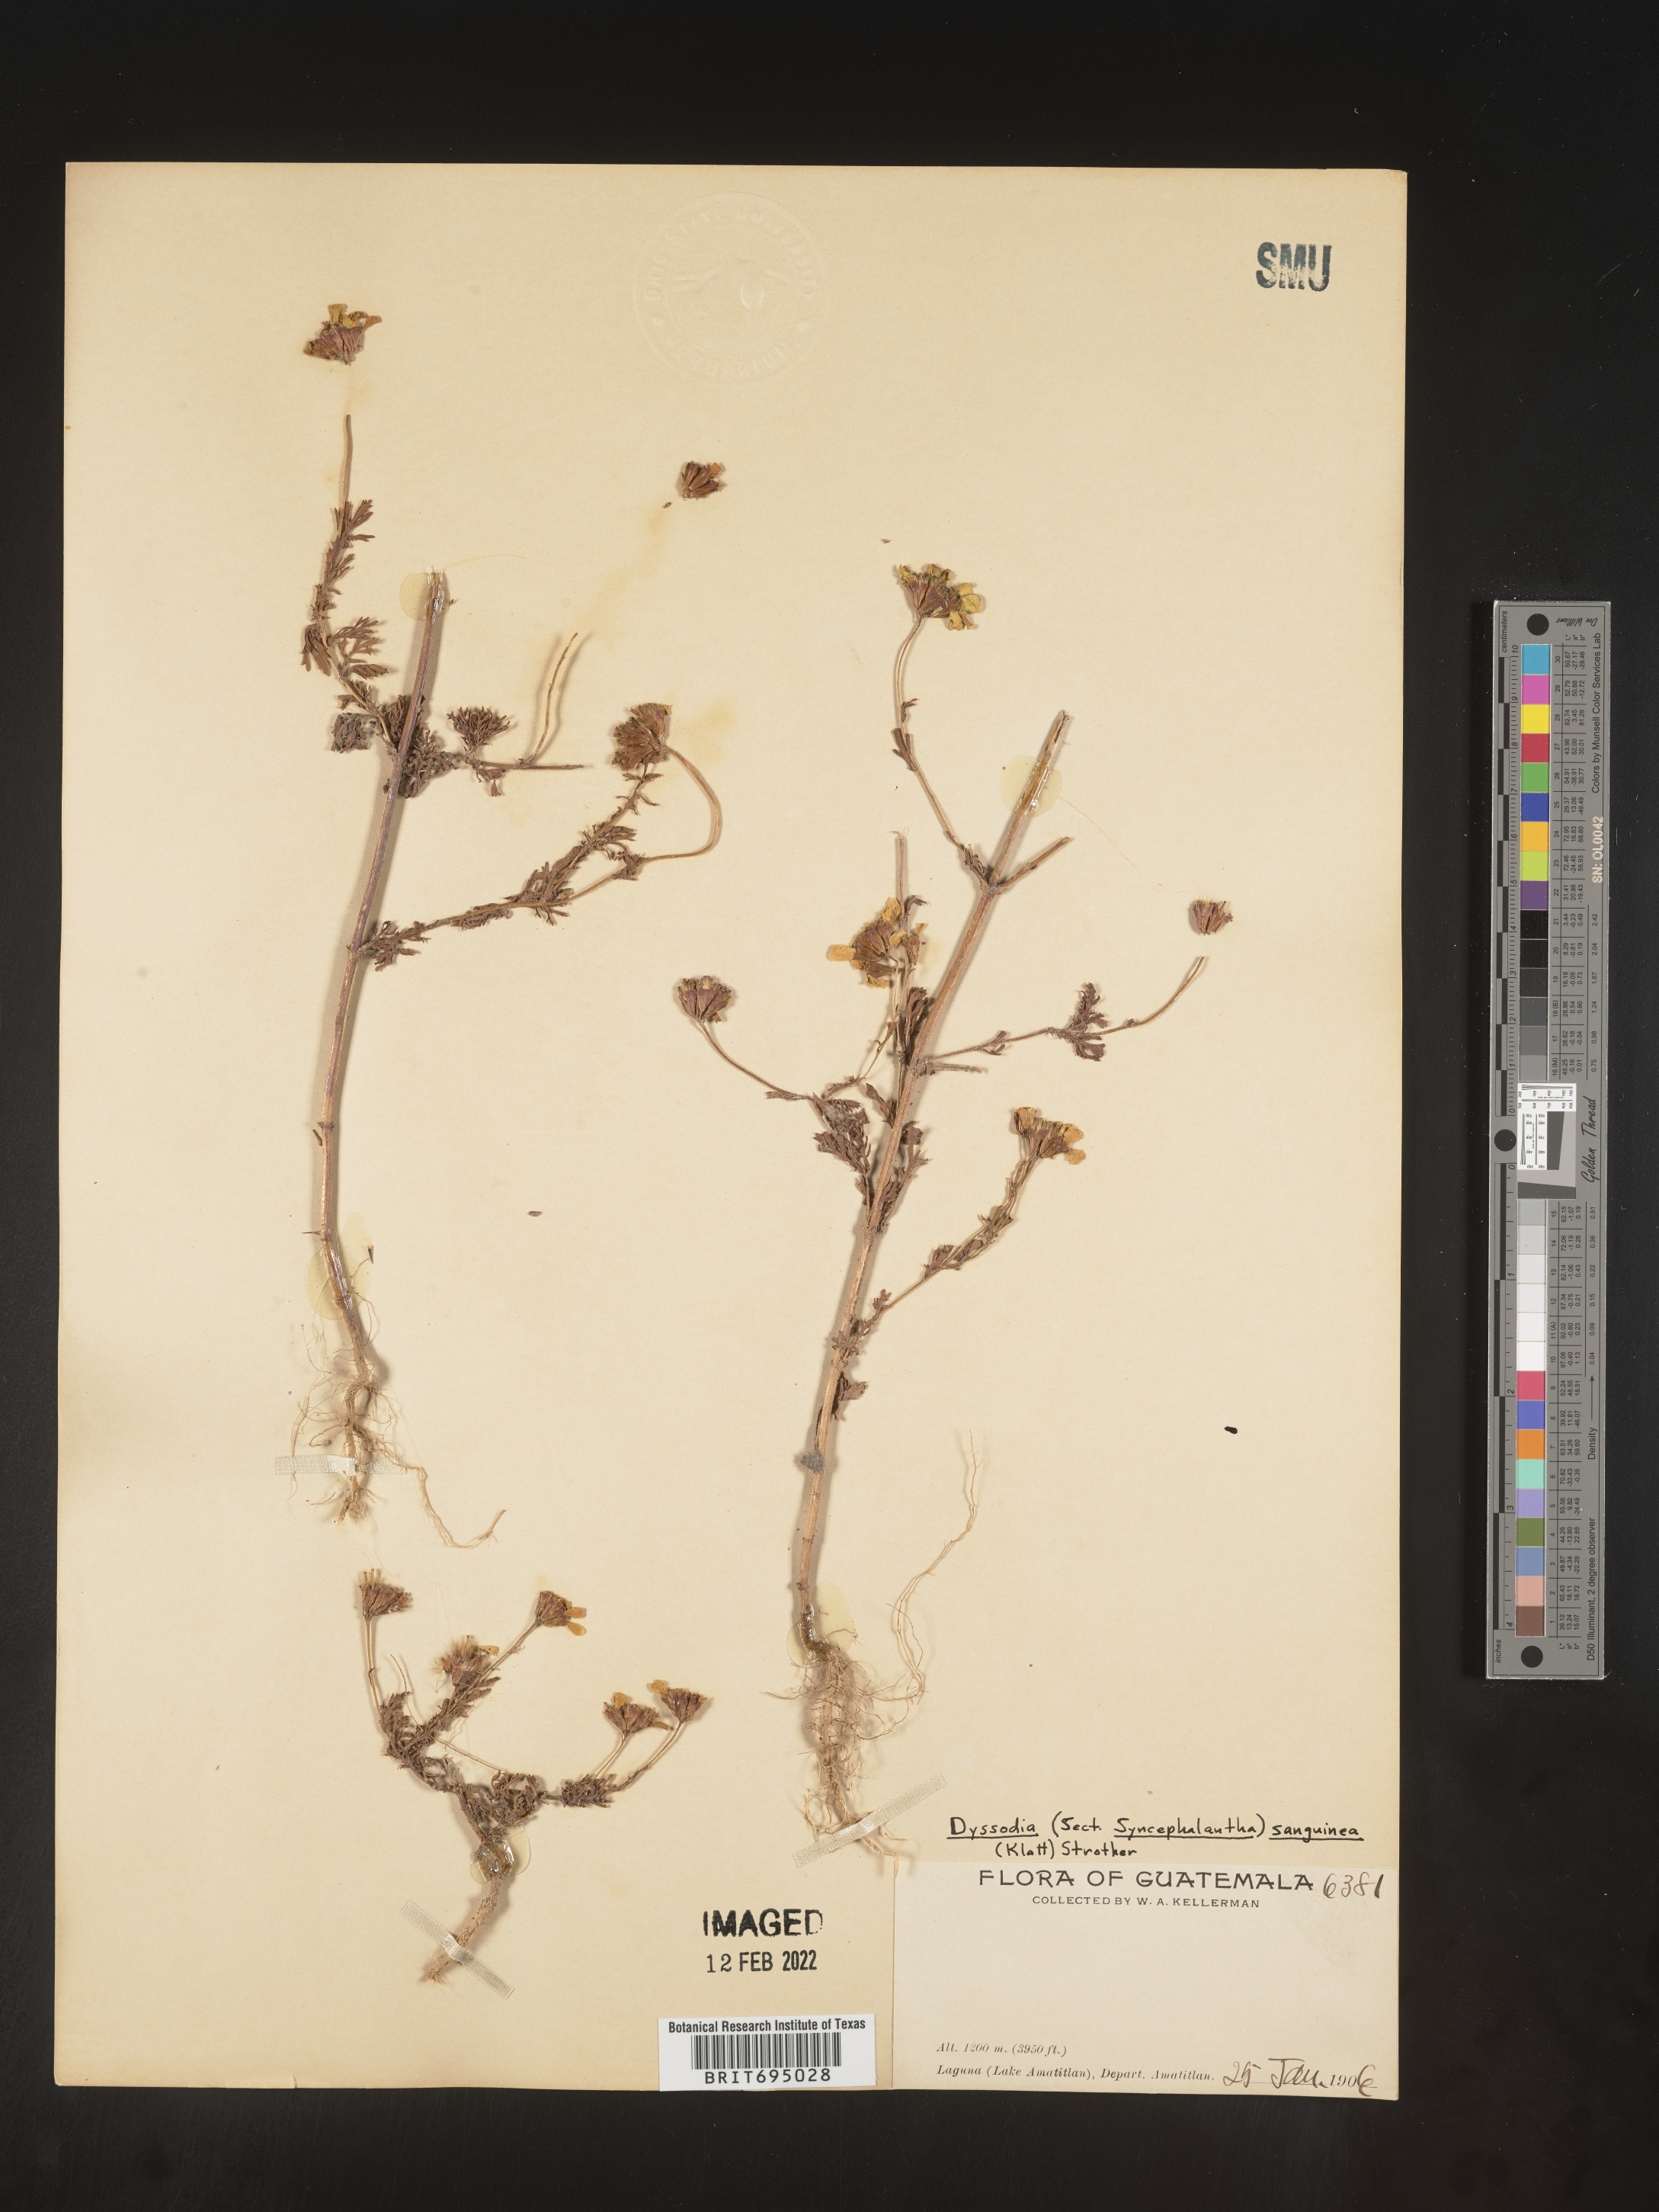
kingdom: Plantae
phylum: Tracheophyta
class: Magnoliopsida
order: Asterales
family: Asteraceae
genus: Dyssodia
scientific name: Dyssodia decipiens
